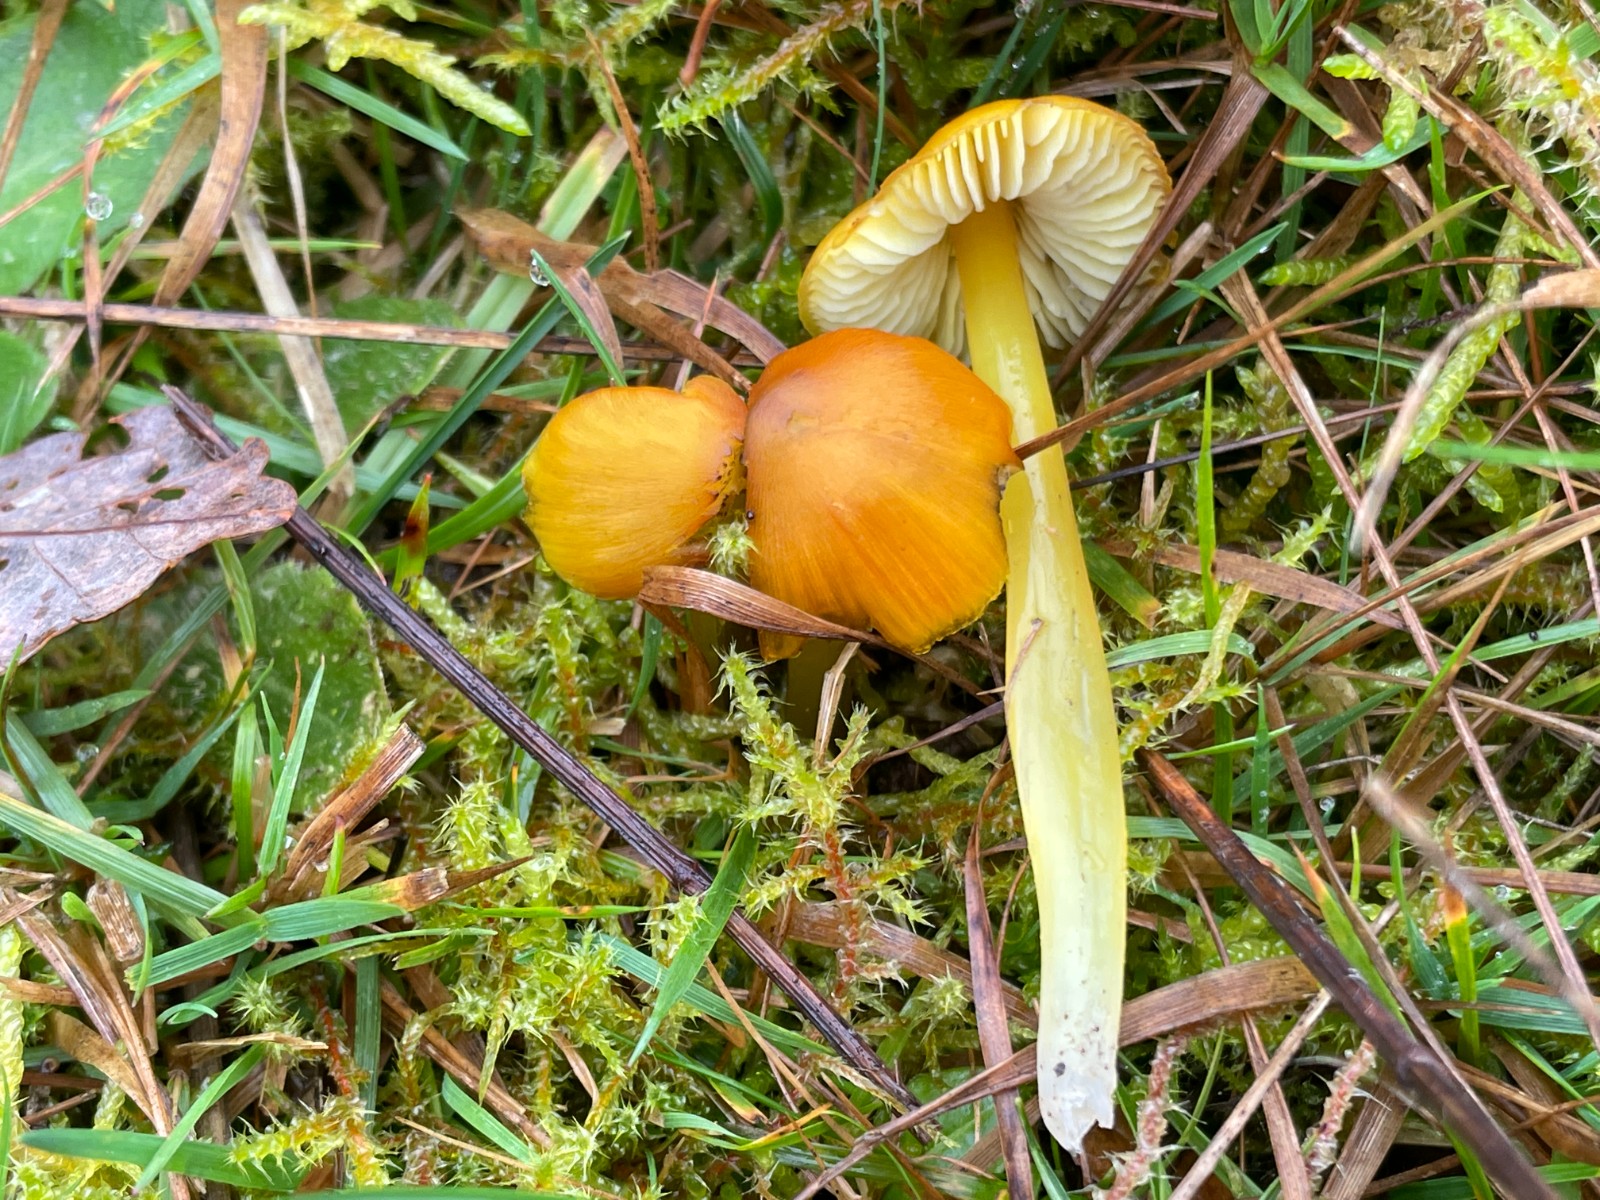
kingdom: Fungi
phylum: Basidiomycota
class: Agaricomycetes
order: Agaricales
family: Hygrophoraceae
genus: Hygrocybe
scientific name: Hygrocybe conica
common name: kegle-vokshat
